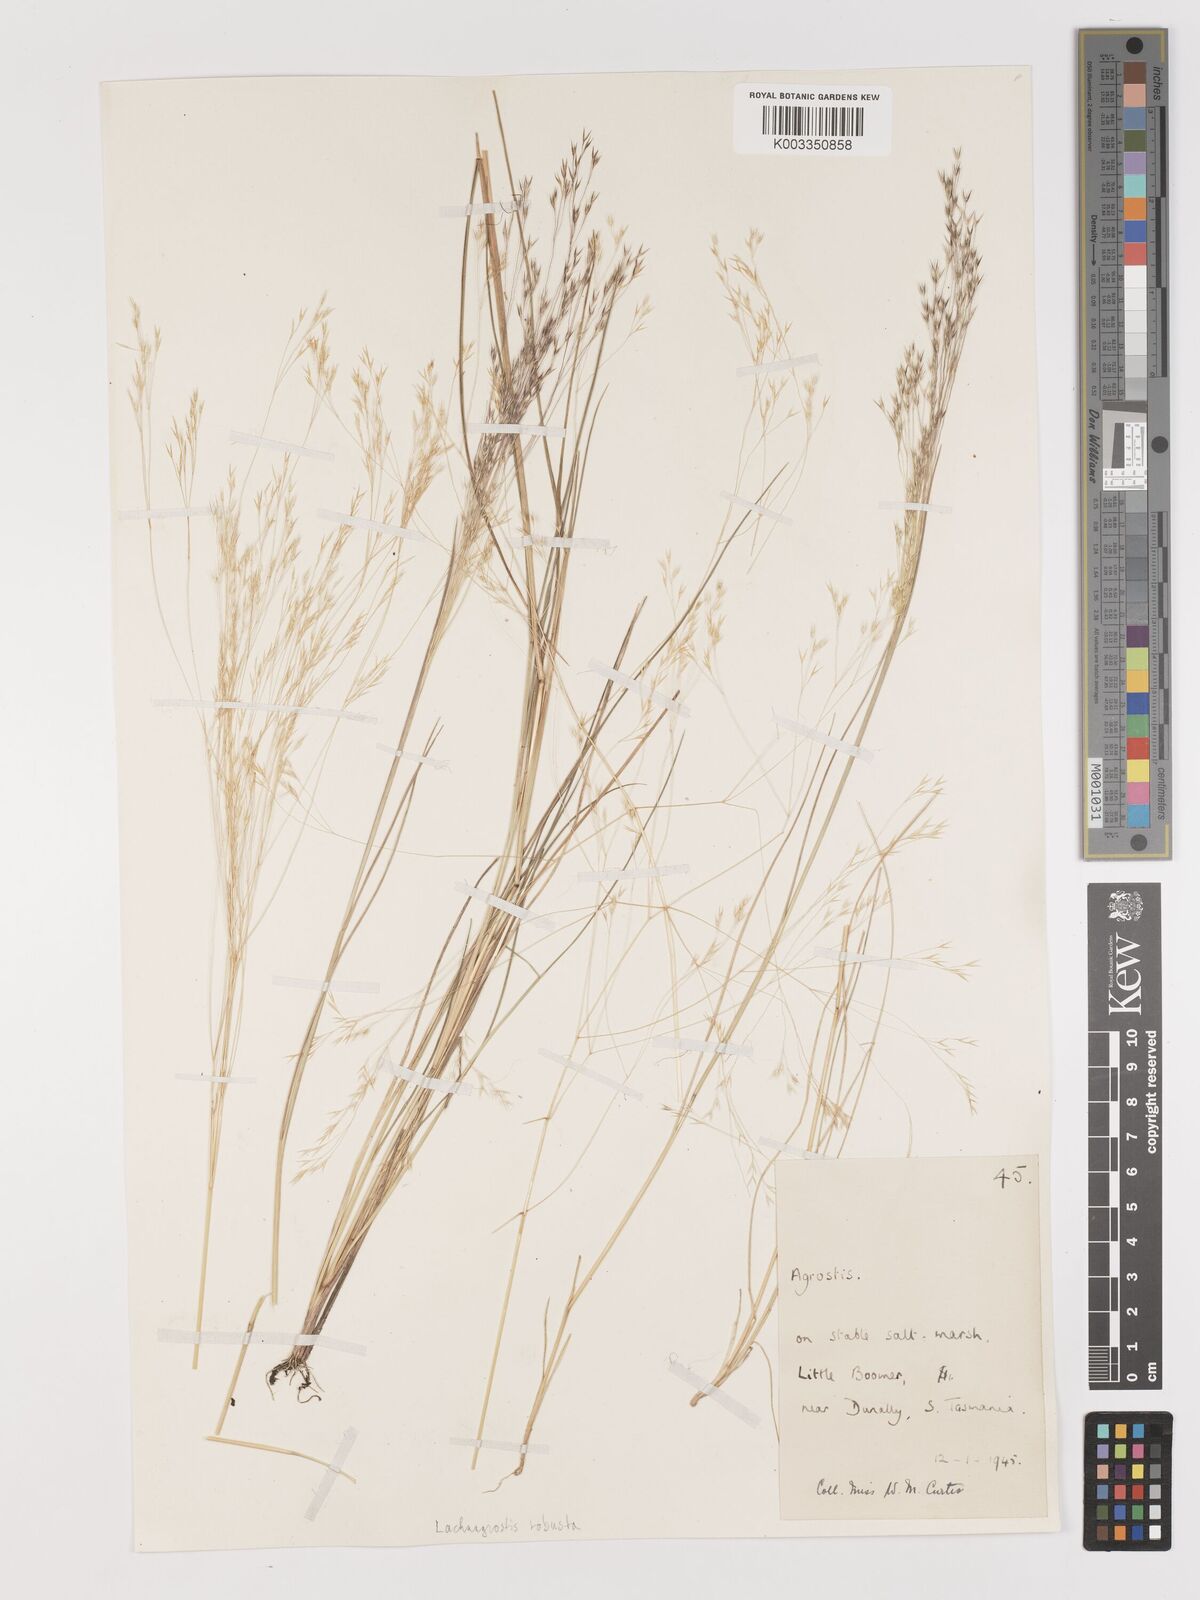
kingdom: Plantae
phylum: Tracheophyta
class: Liliopsida
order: Poales
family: Poaceae
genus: Lachnagrostis
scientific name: Lachnagrostis robusta
